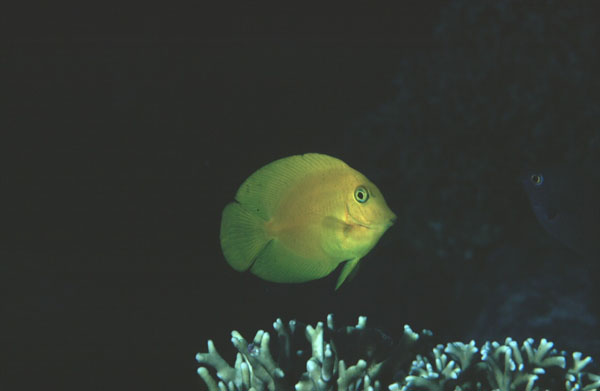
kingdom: Animalia
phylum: Chordata
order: Perciformes
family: Acanthuridae
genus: Acanthurus
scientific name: Acanthurus pyroferus
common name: Chocolate surgeonfish
